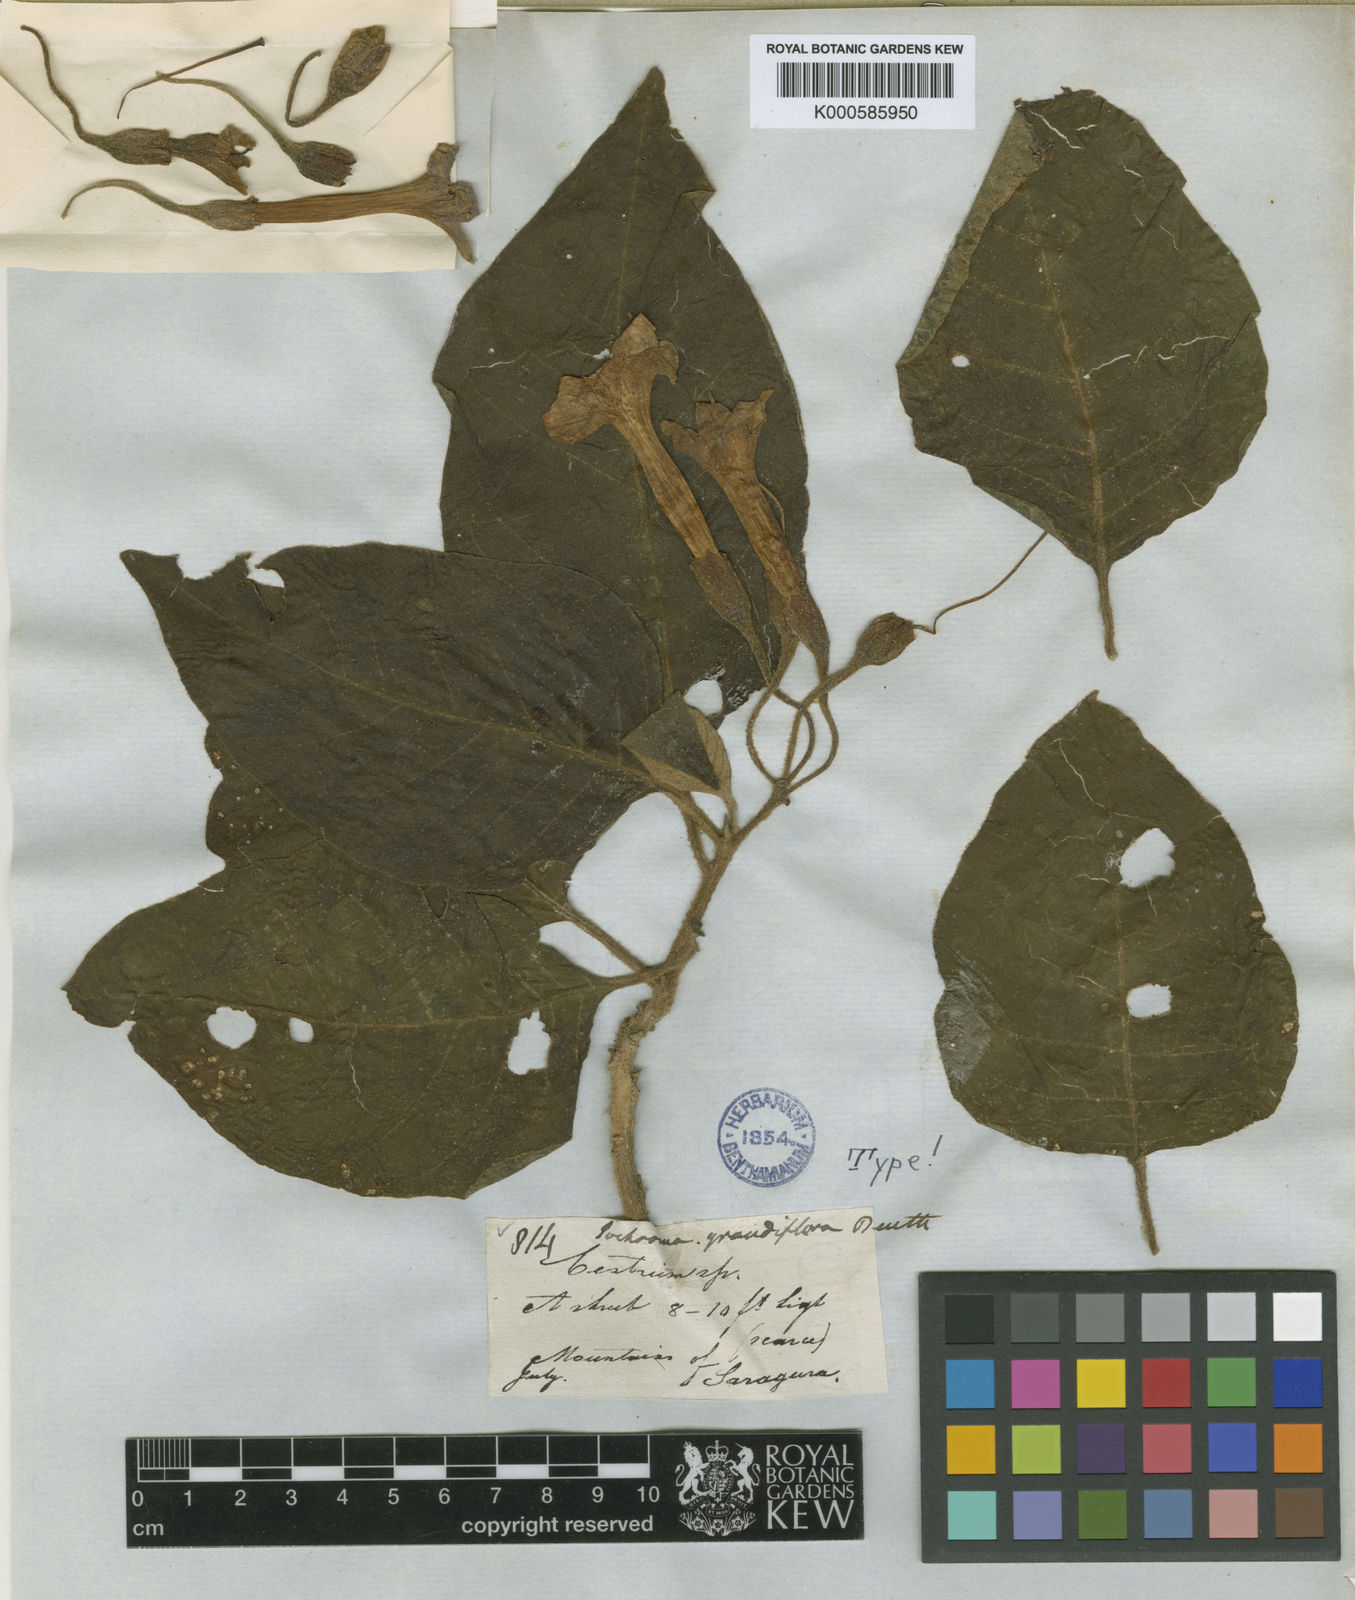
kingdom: Plantae
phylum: Tracheophyta
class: Magnoliopsida
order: Solanales
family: Solanaceae
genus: Trozelia
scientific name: Trozelia grandiflora
